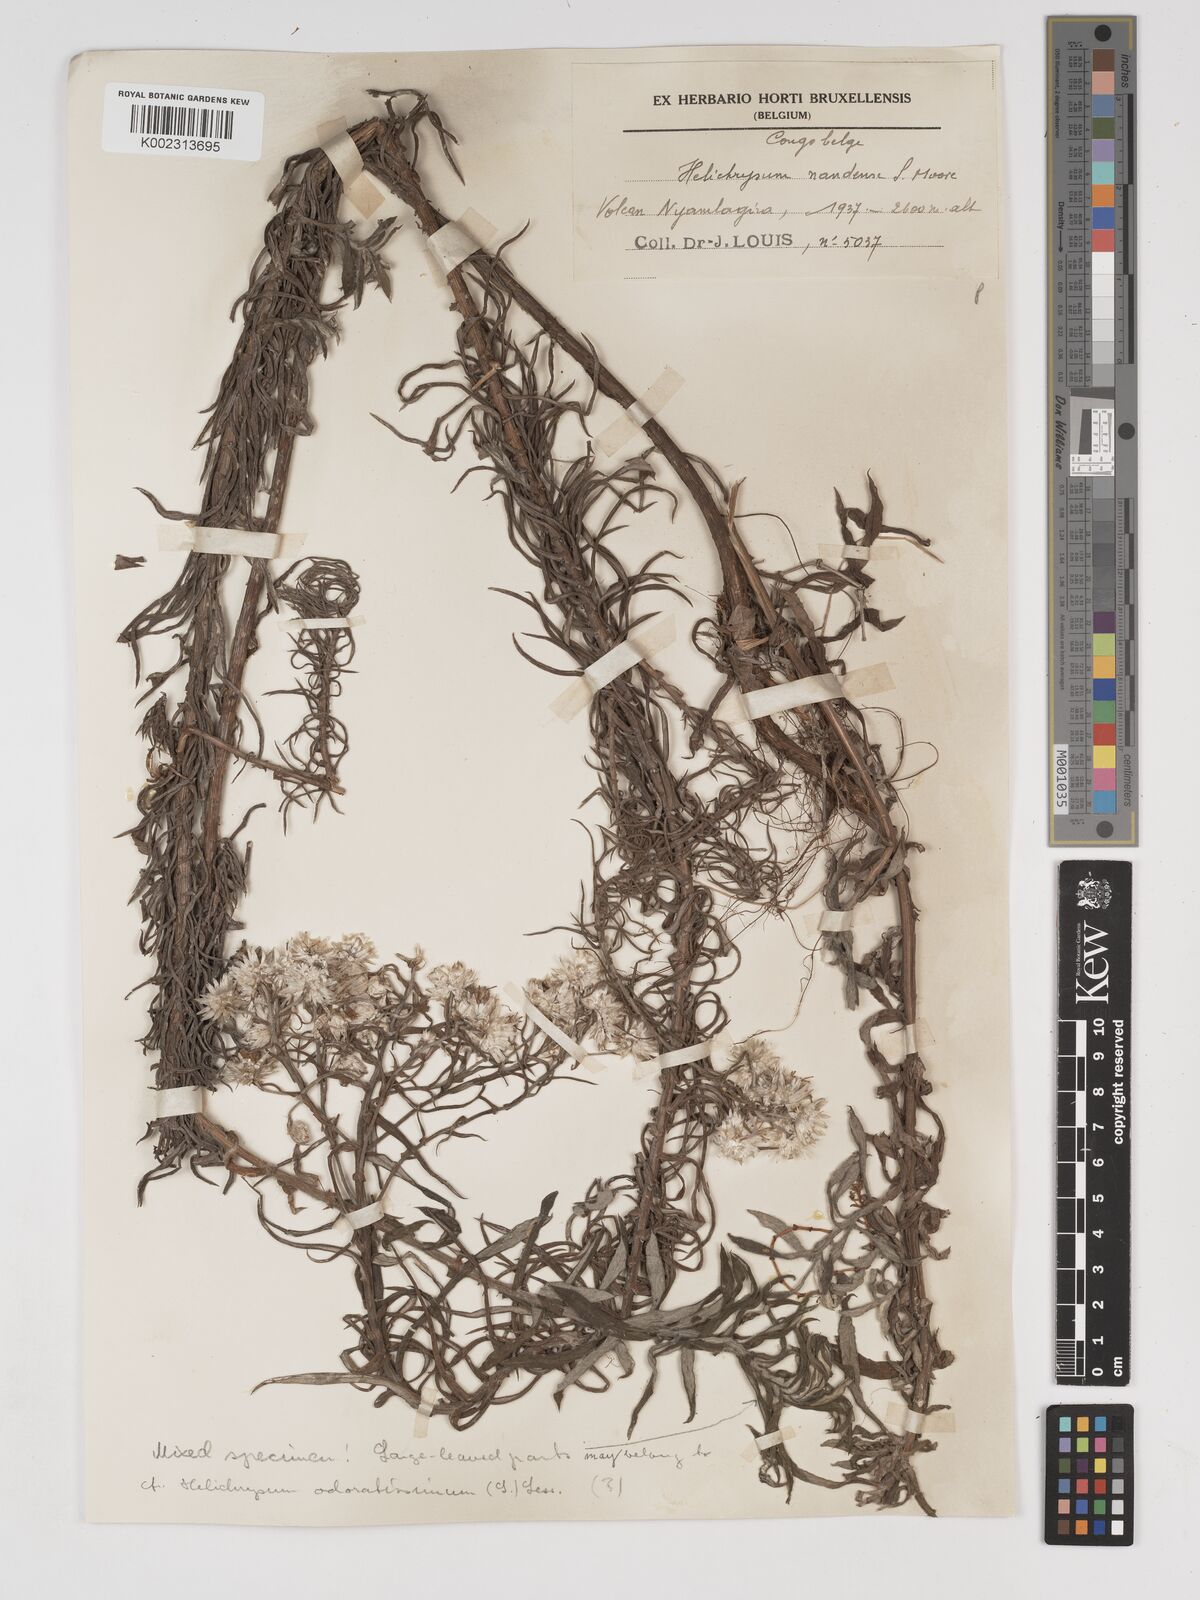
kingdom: Plantae
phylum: Tracheophyta
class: Magnoliopsida
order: Asterales
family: Asteraceae
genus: Helichrysum
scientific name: Helichrysum argyranthum
